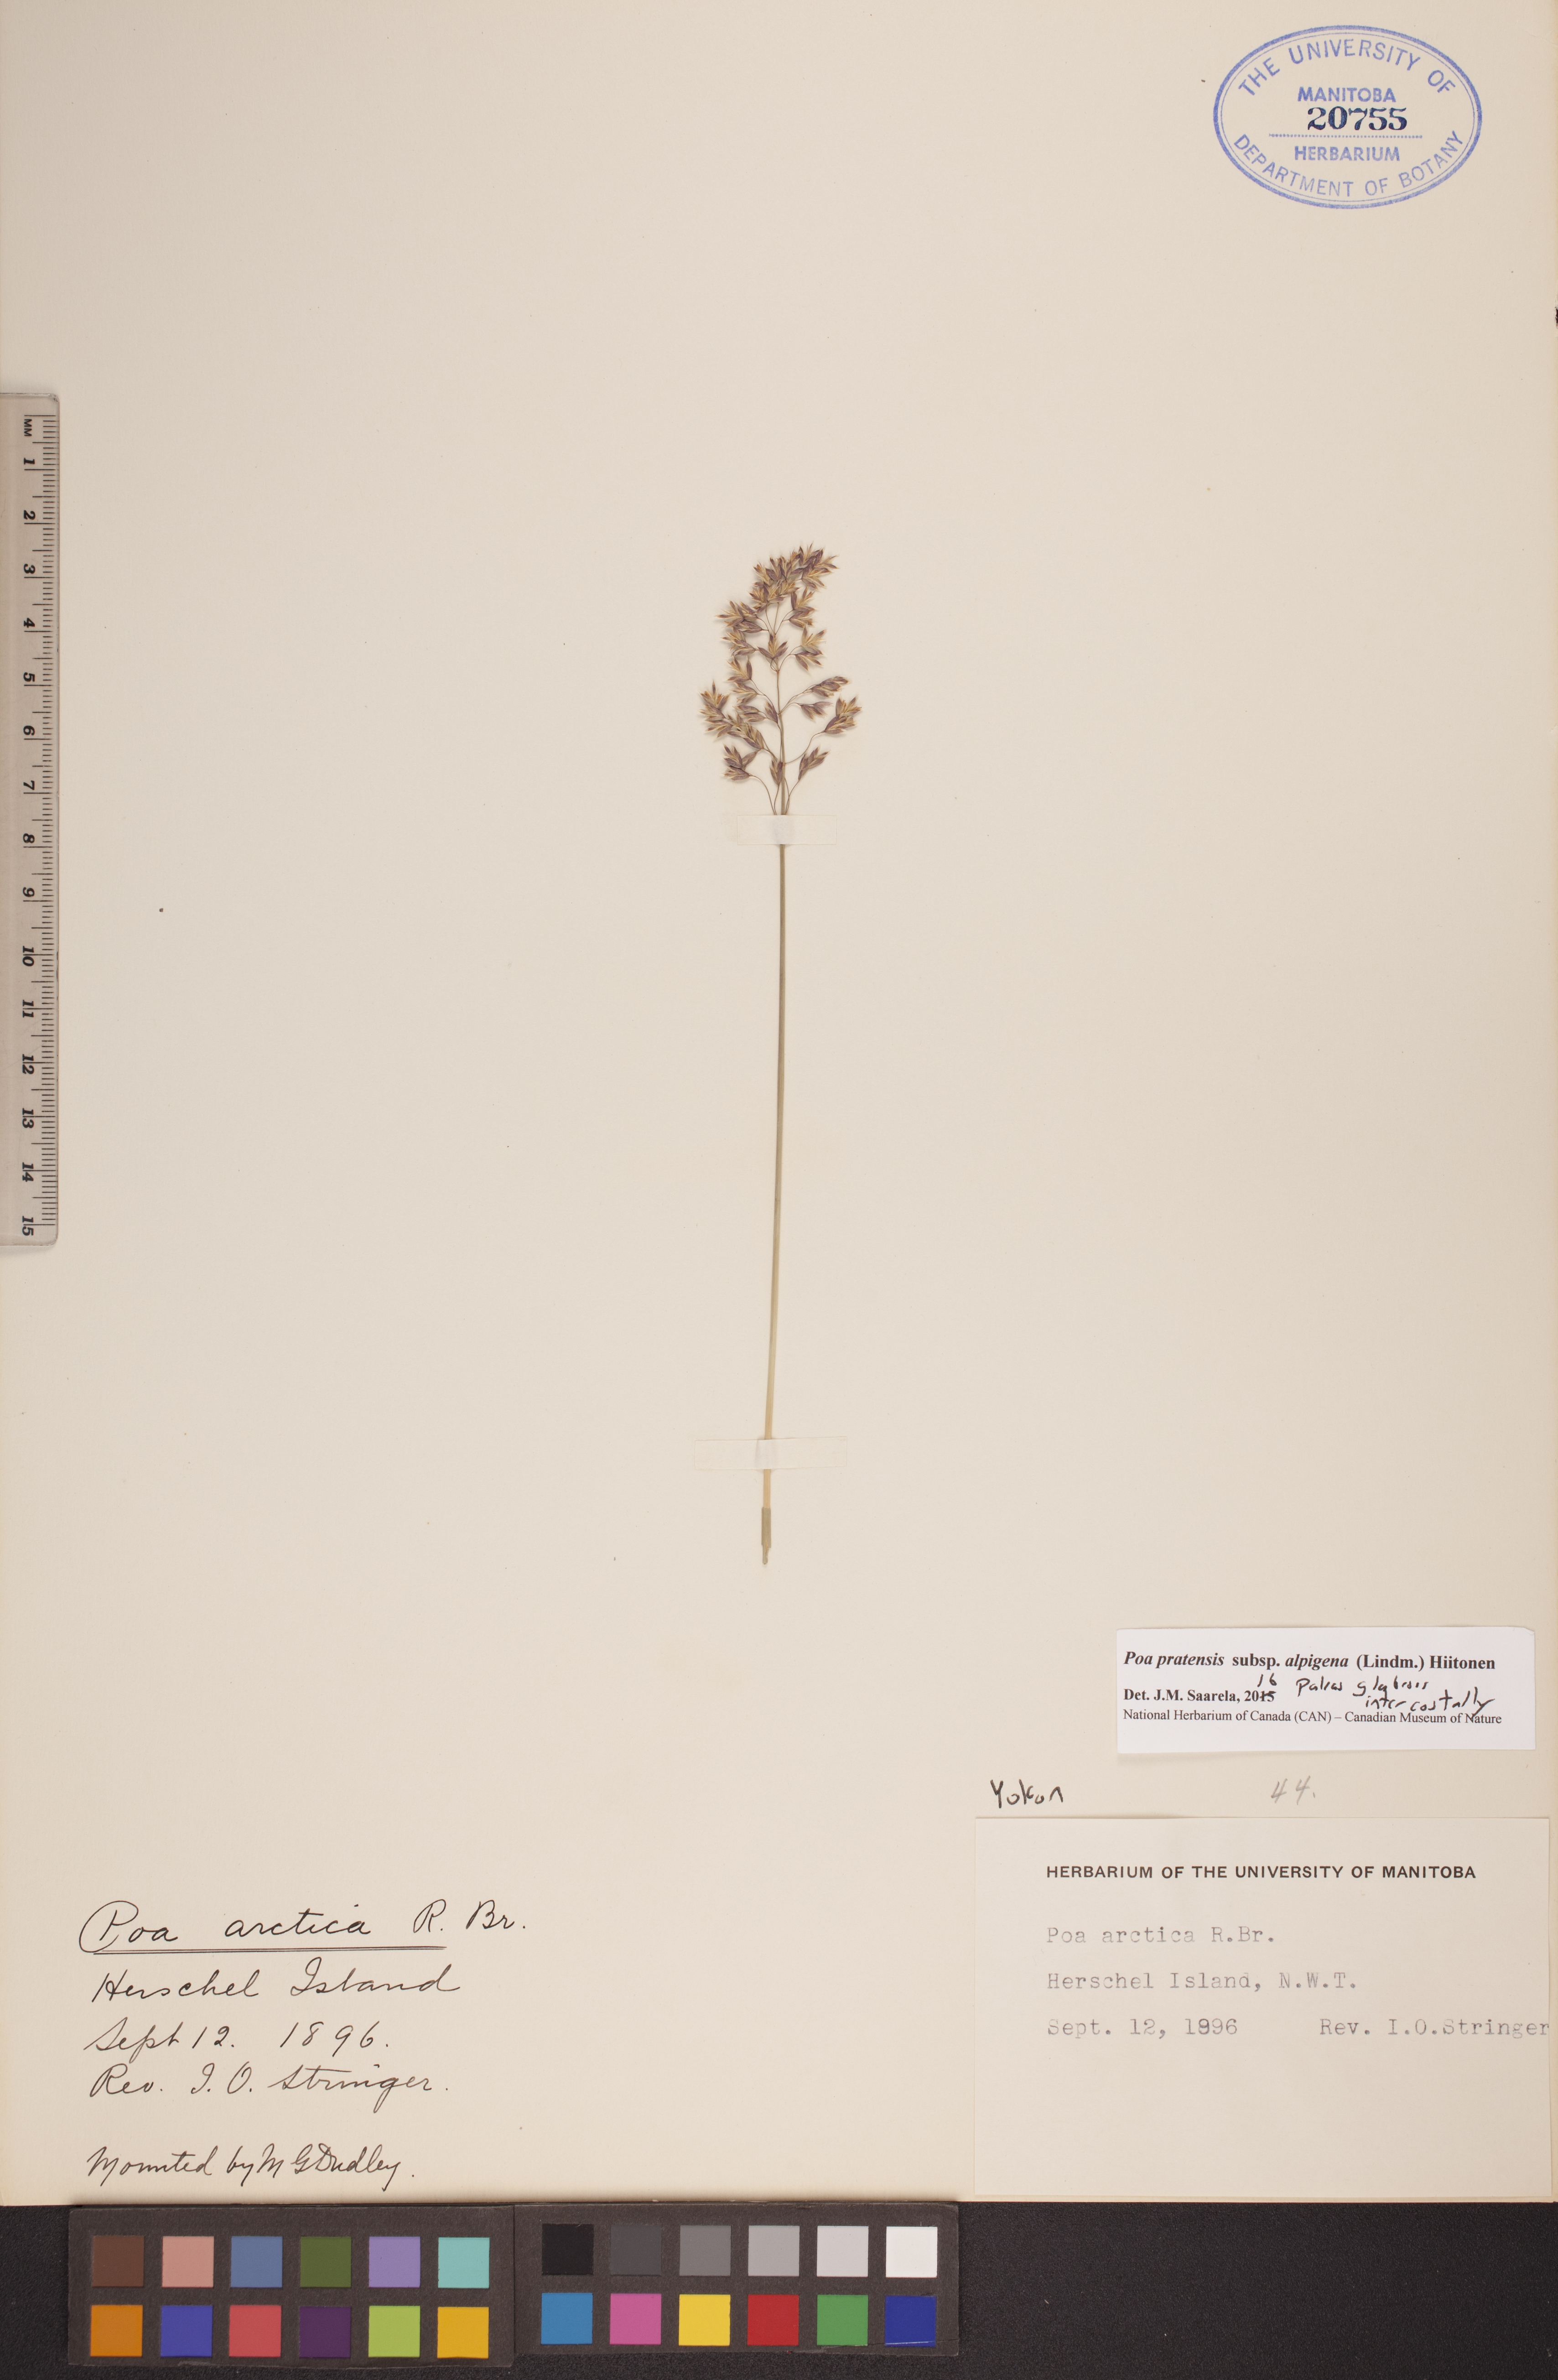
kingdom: Plantae
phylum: Tracheophyta
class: Liliopsida
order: Poales
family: Poaceae
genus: Poa
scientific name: Poa alpigena
